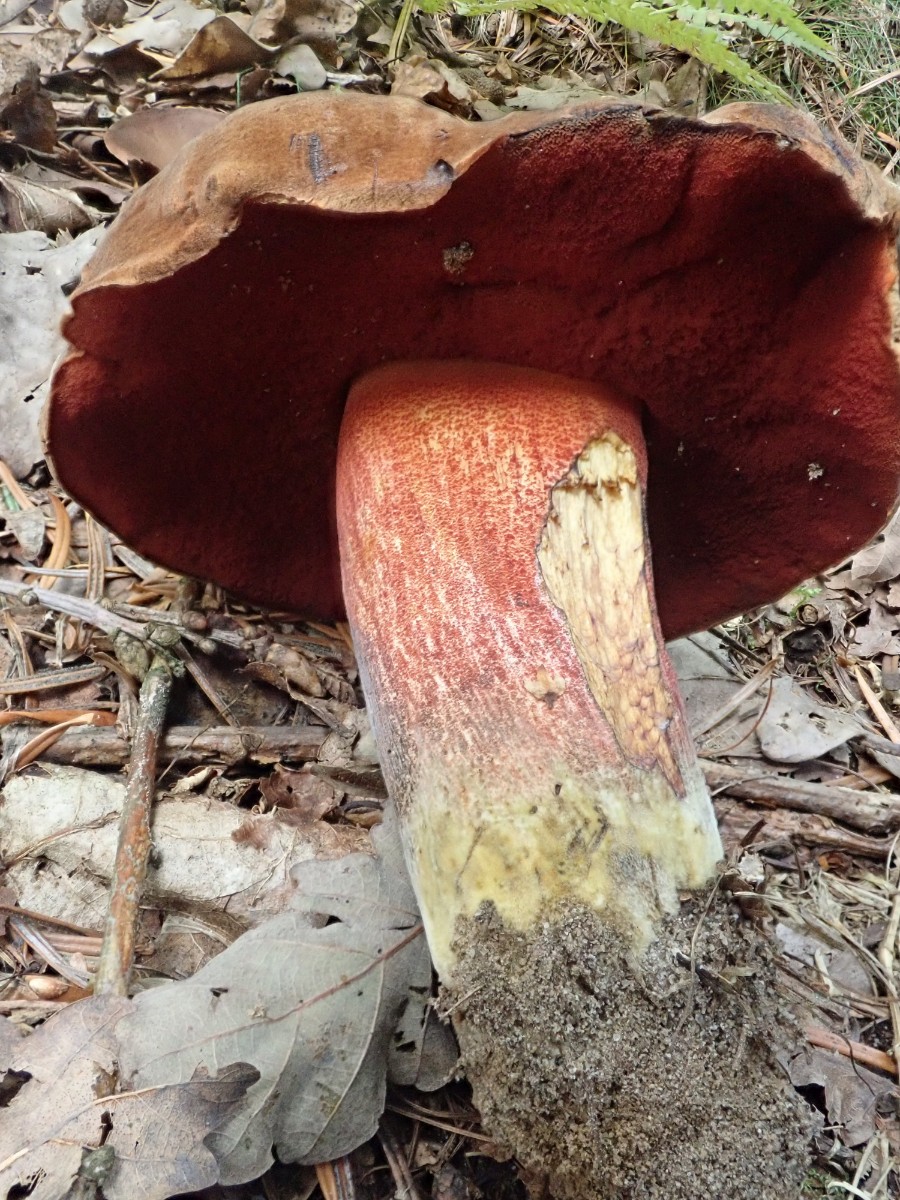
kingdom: Fungi
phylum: Basidiomycota
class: Agaricomycetes
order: Boletales
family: Boletaceae
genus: Neoboletus
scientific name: Neoboletus erythropus
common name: punktstokket indigorørhat
